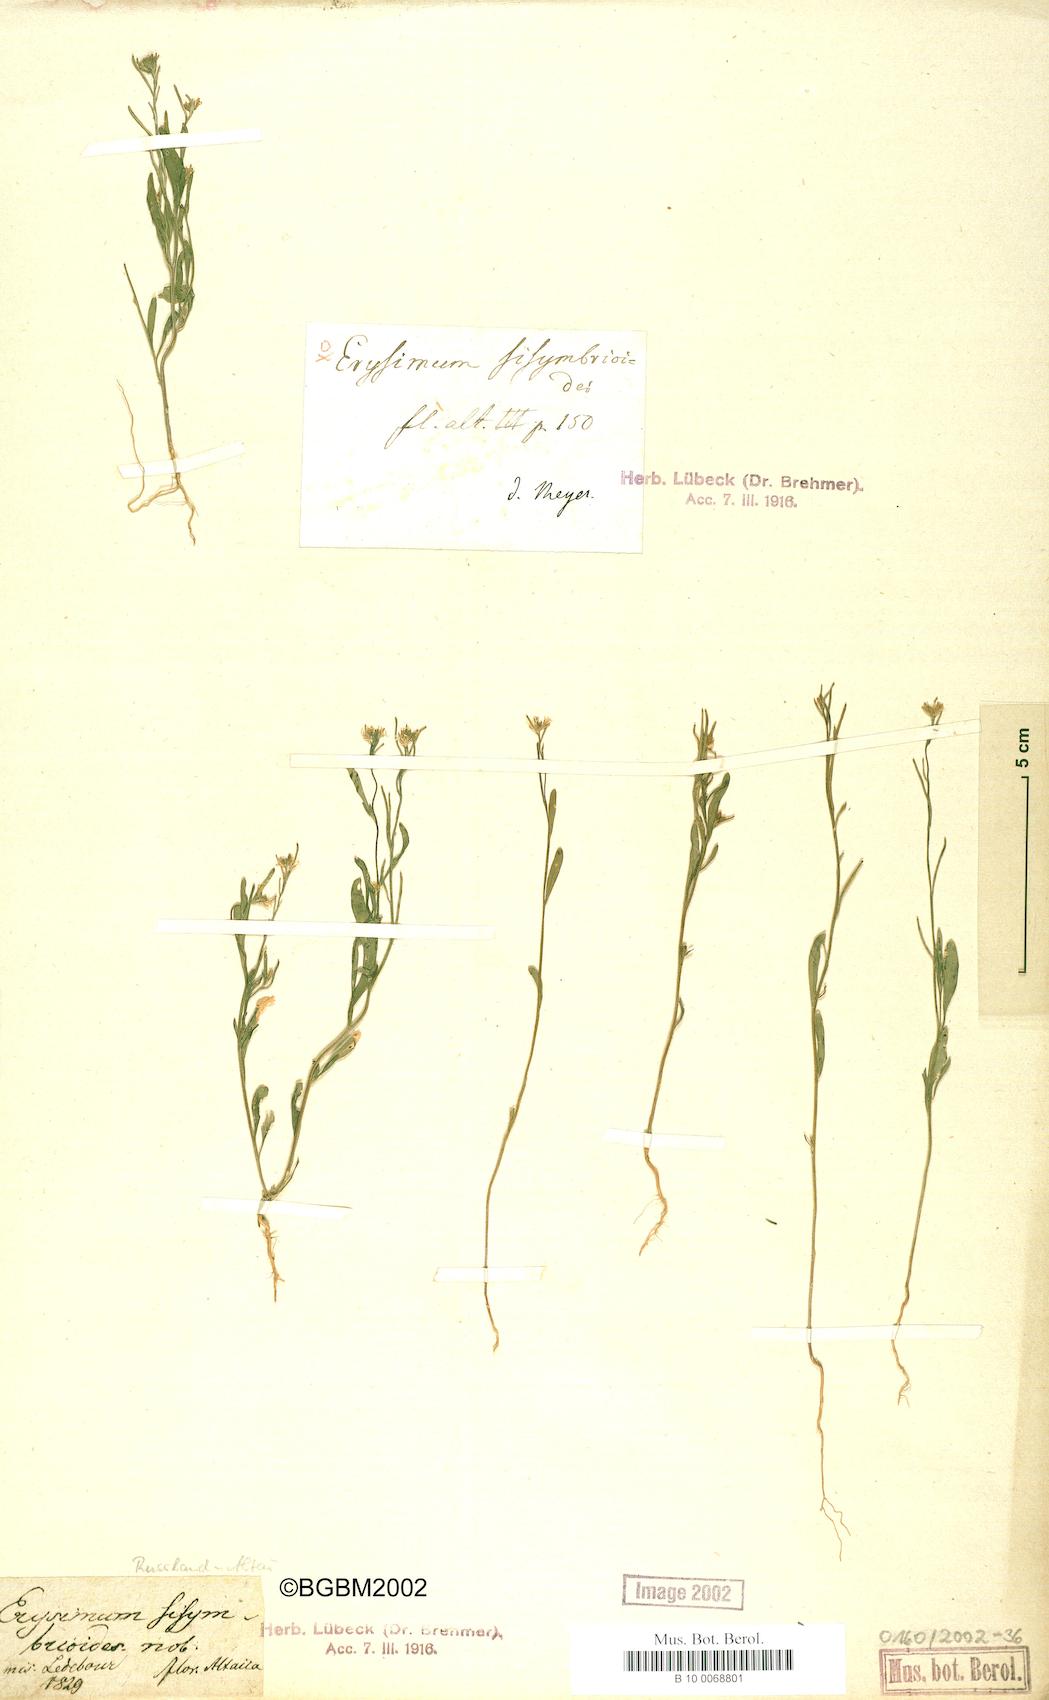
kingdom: Plantae
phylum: Tracheophyta
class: Magnoliopsida
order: Brassicales
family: Brassicaceae
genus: Erysimum
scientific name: Erysimum sisymbrioides
